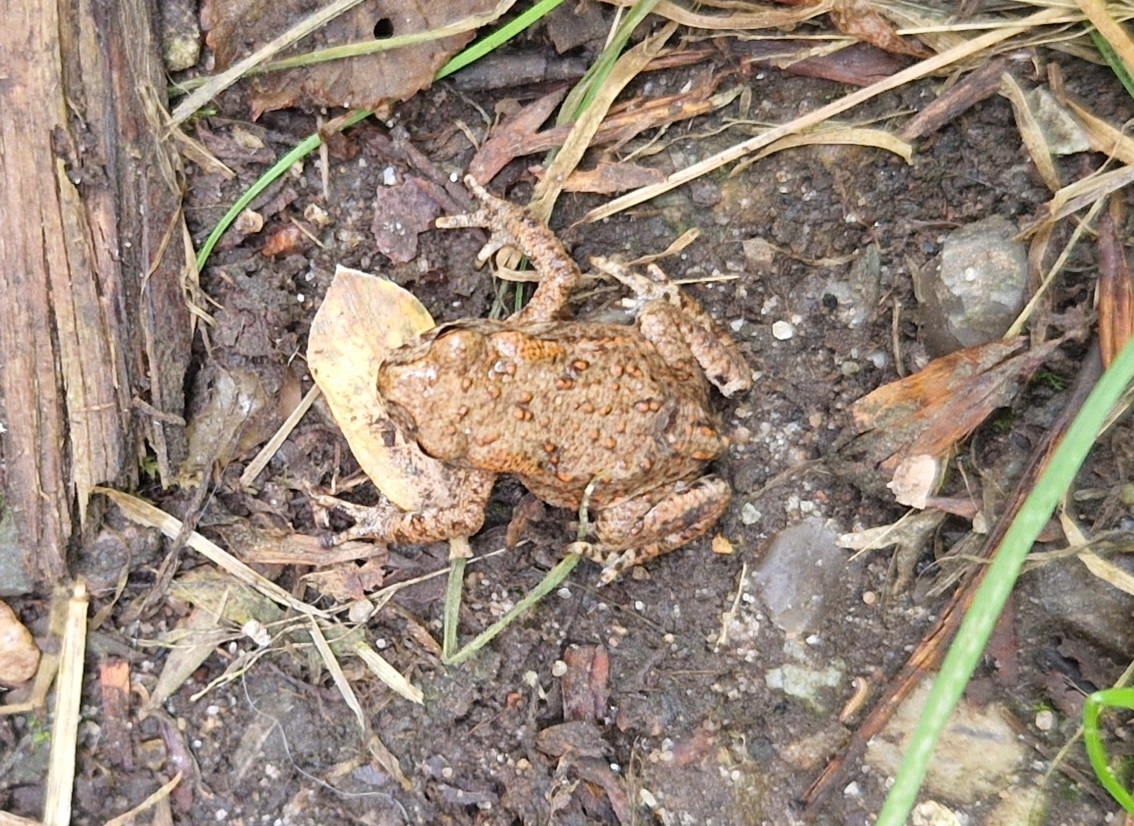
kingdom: Animalia
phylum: Chordata
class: Amphibia
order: Anura
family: Bufonidae
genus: Bufo
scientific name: Bufo bufo
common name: Skrubtudse
